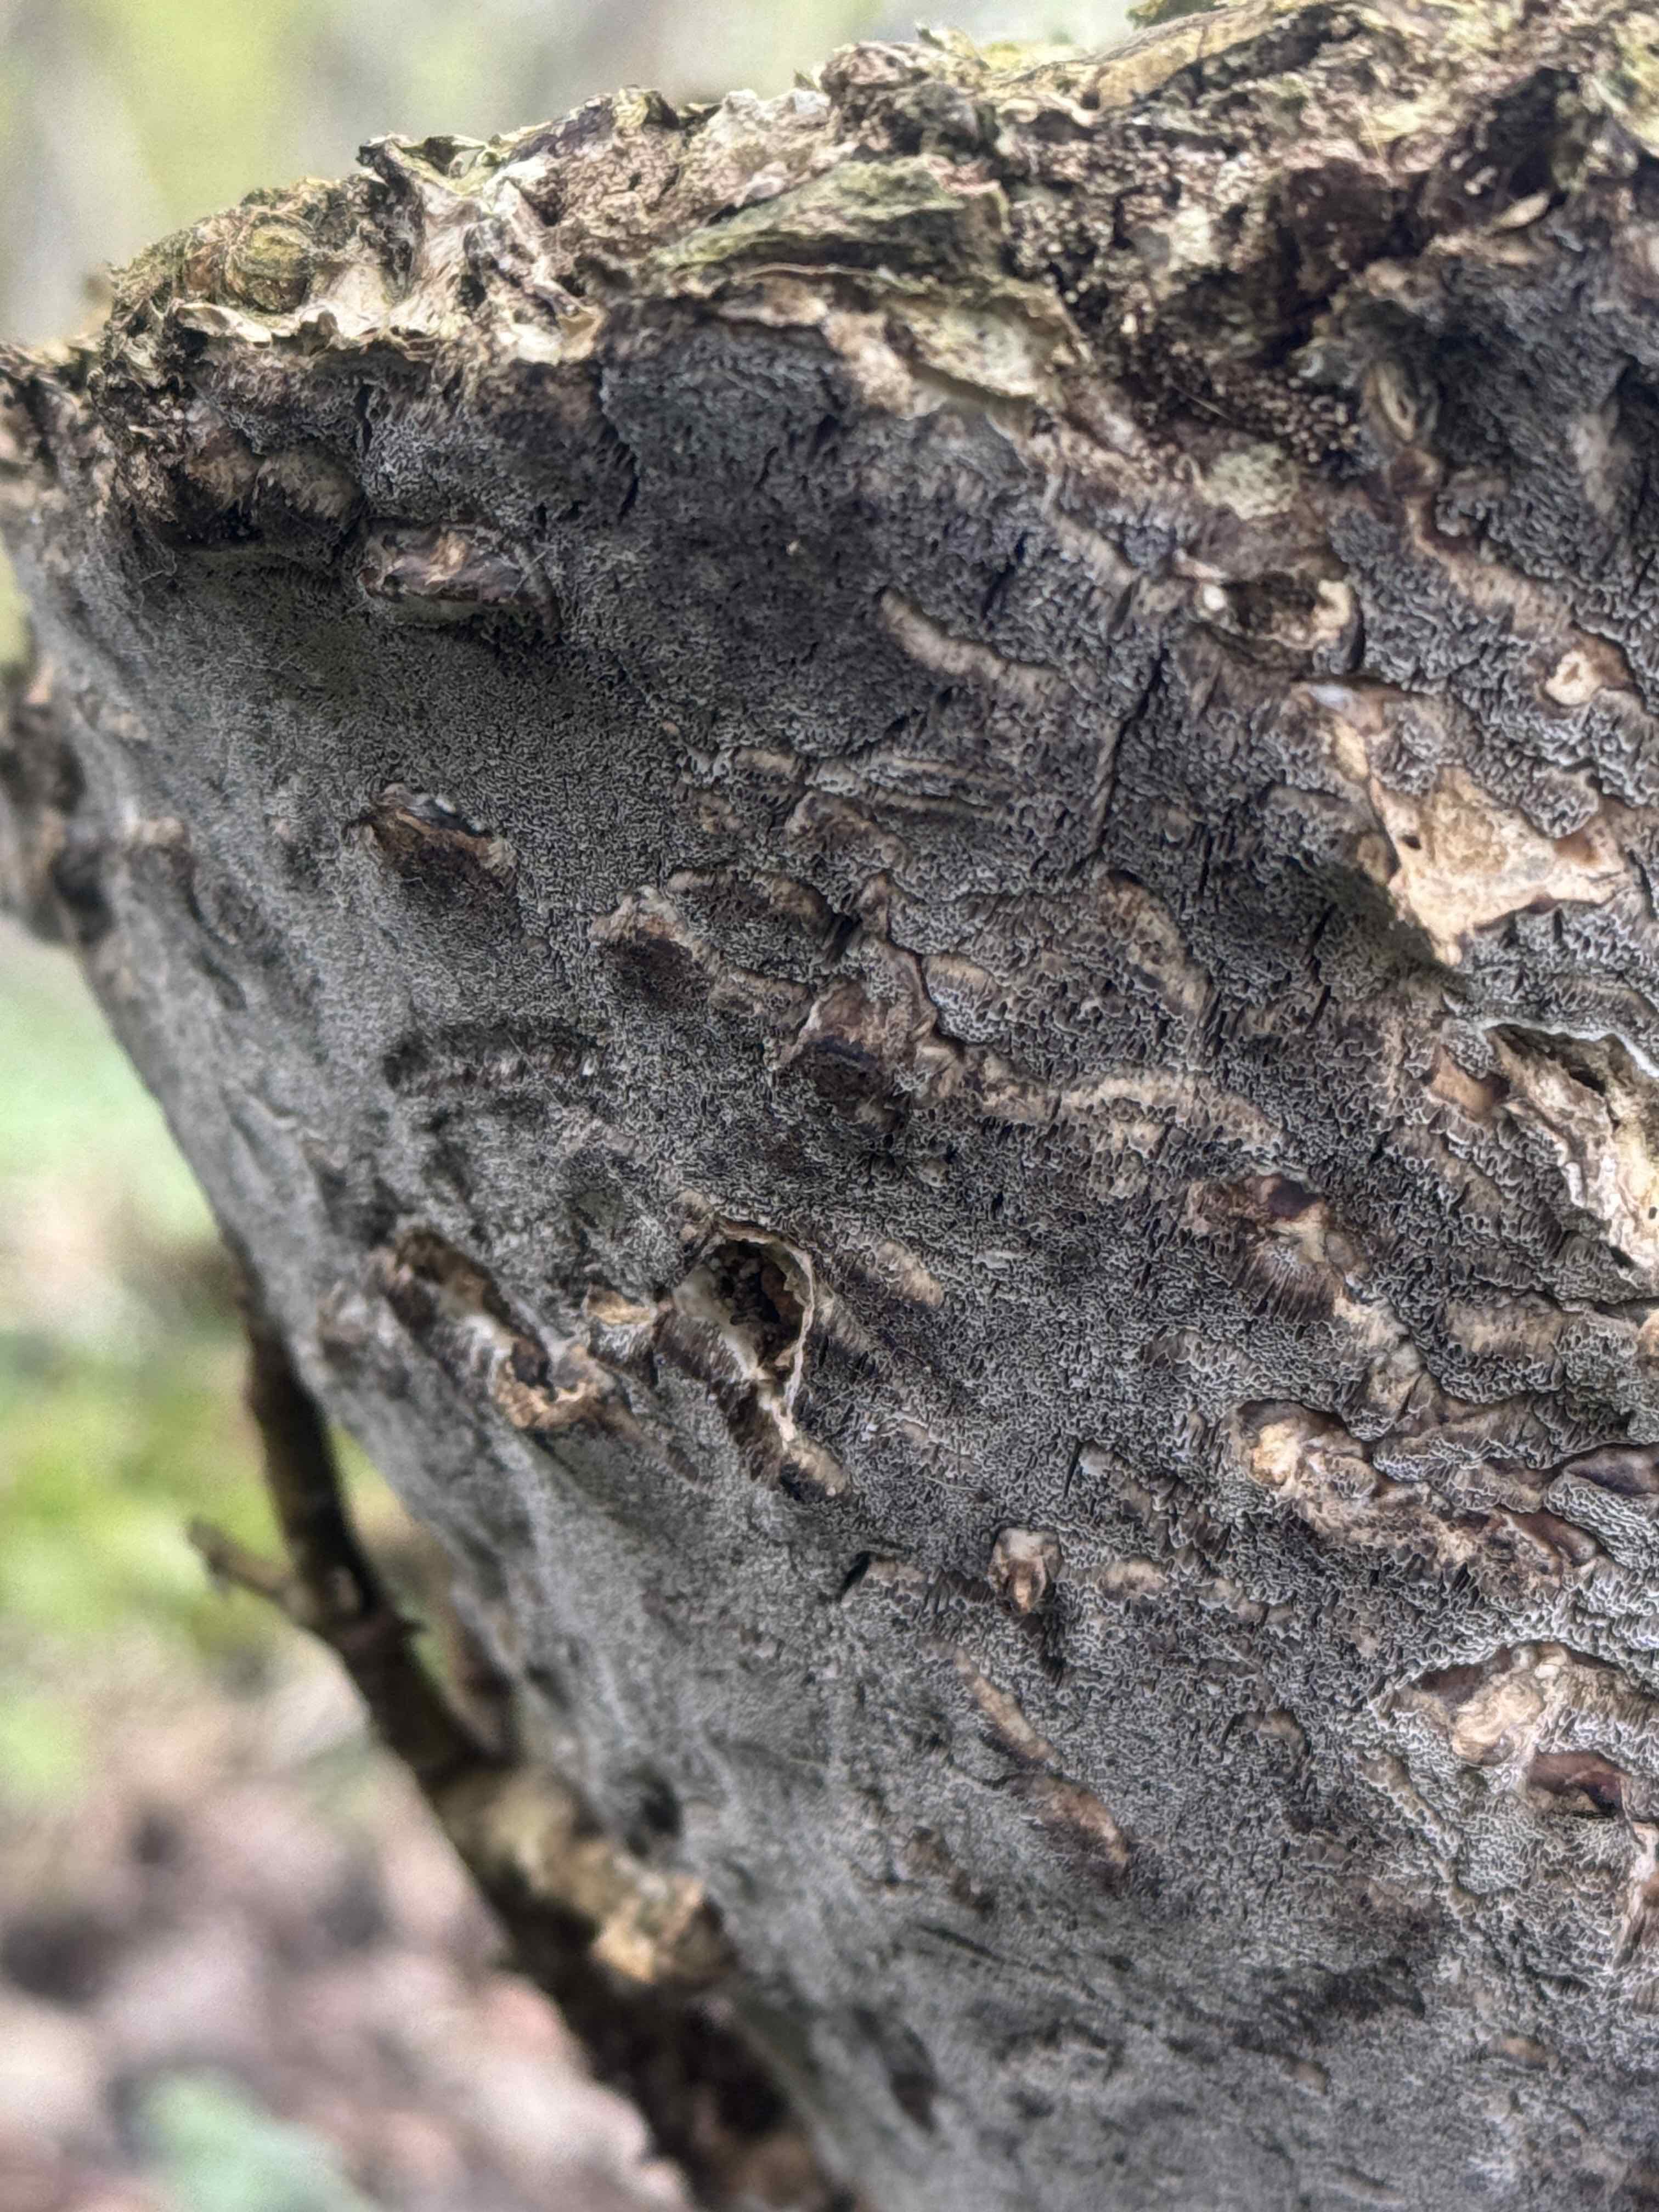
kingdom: Fungi
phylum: Basidiomycota
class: Agaricomycetes
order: Polyporales
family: Phanerochaetaceae
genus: Bjerkandera
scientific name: Bjerkandera adusta
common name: sveden sodporesvamp
